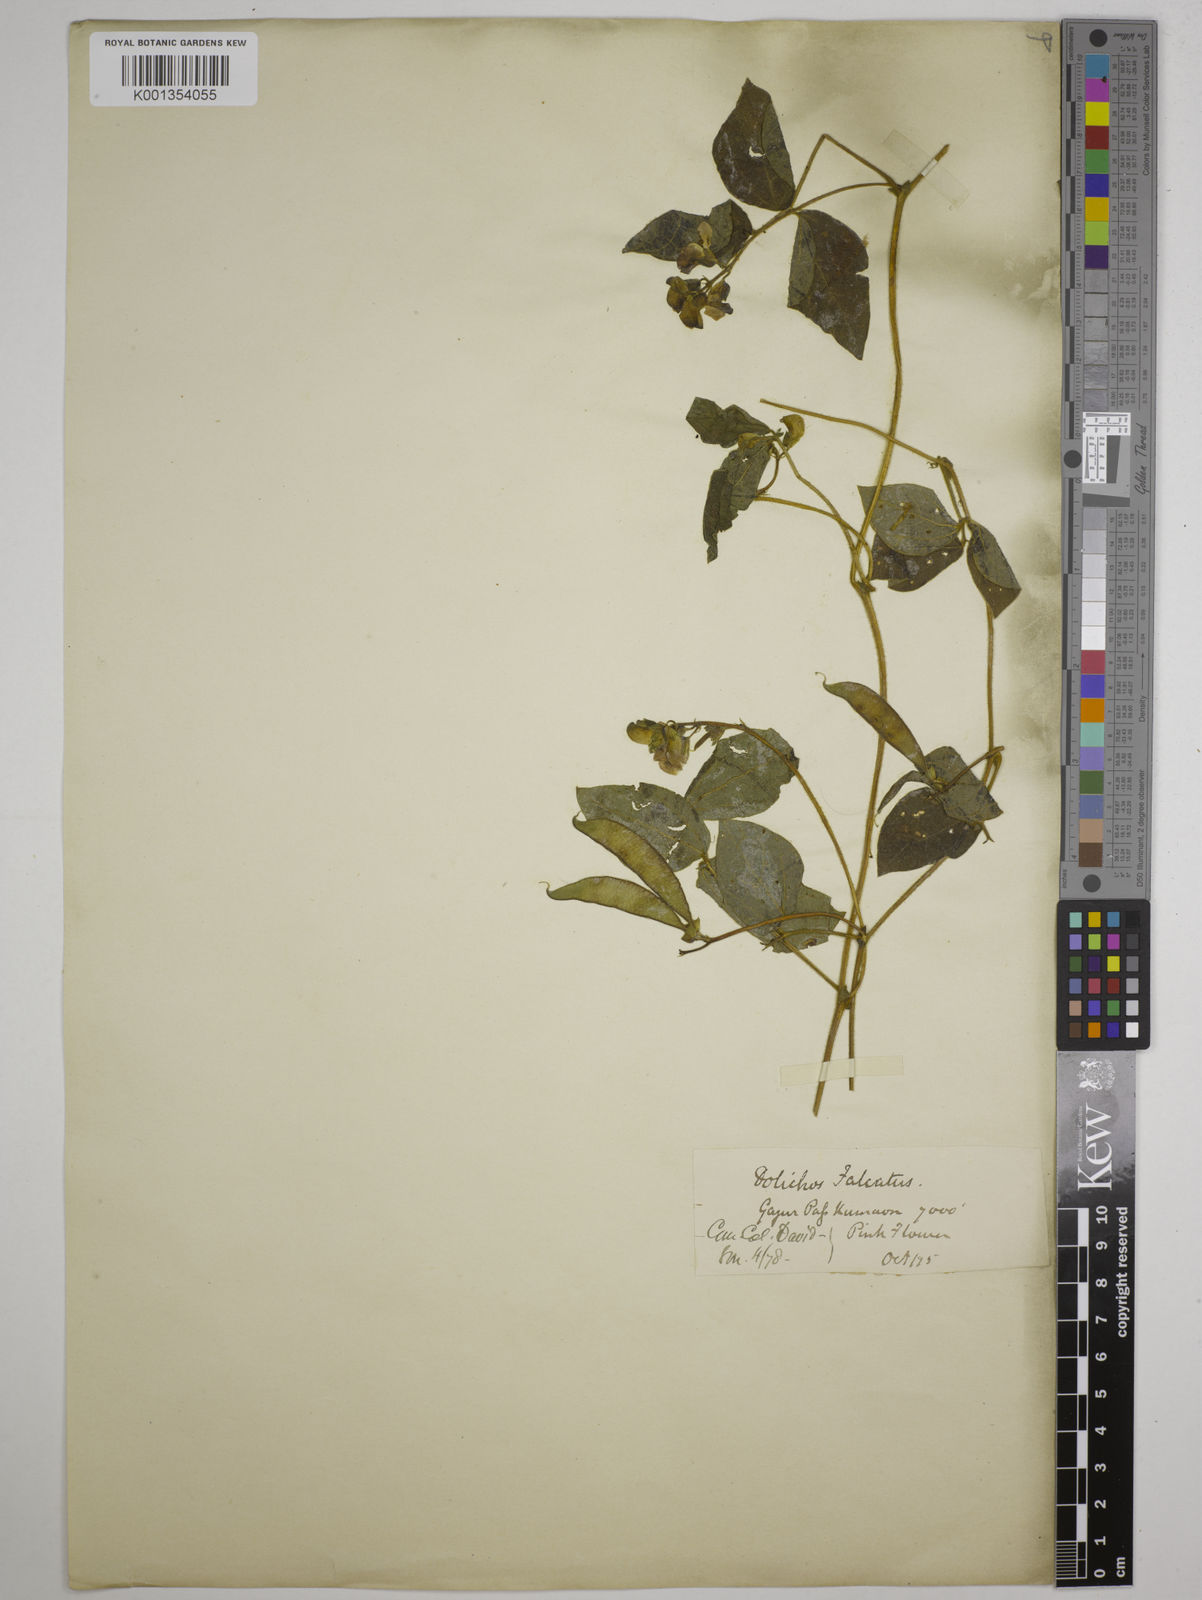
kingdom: Plantae
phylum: Tracheophyta
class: Magnoliopsida
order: Fabales
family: Fabaceae
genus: Dolichos
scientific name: Dolichos
